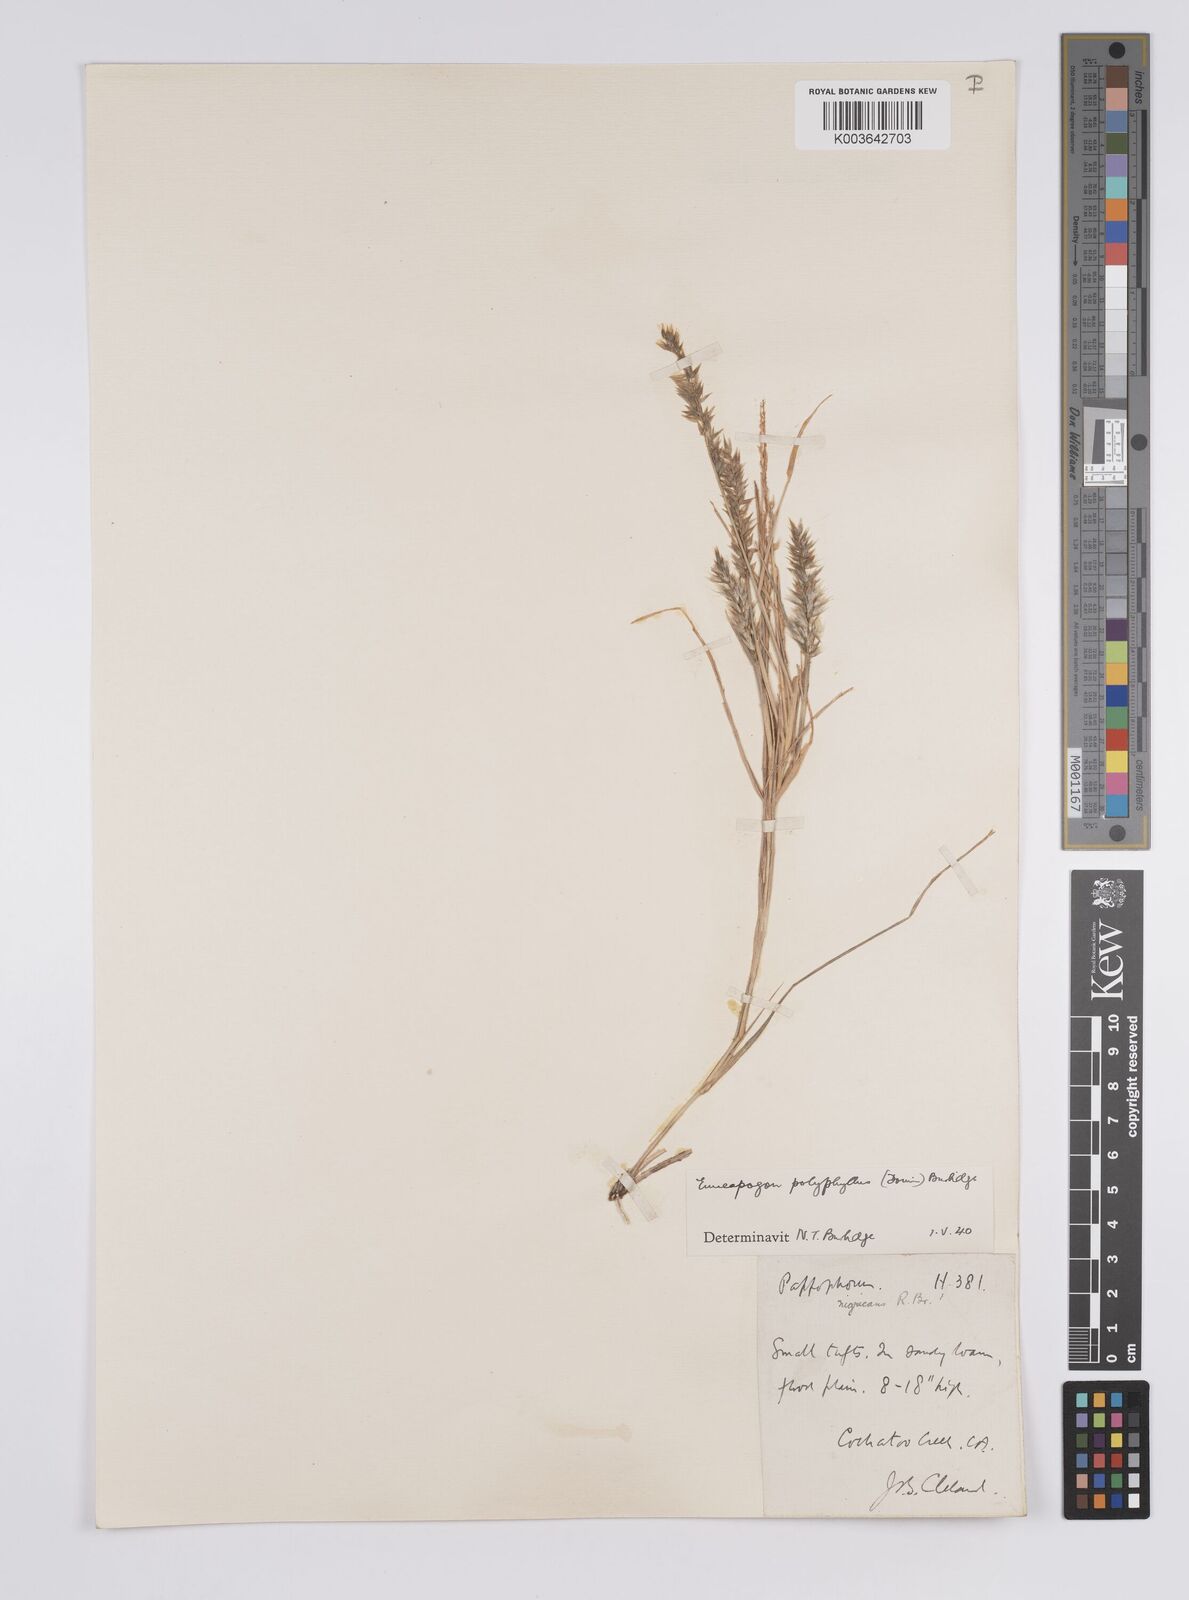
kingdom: Plantae
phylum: Tracheophyta
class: Liliopsida
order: Poales
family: Poaceae
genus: Enneapogon
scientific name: Enneapogon polyphyllus
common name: Leafy nineawn
